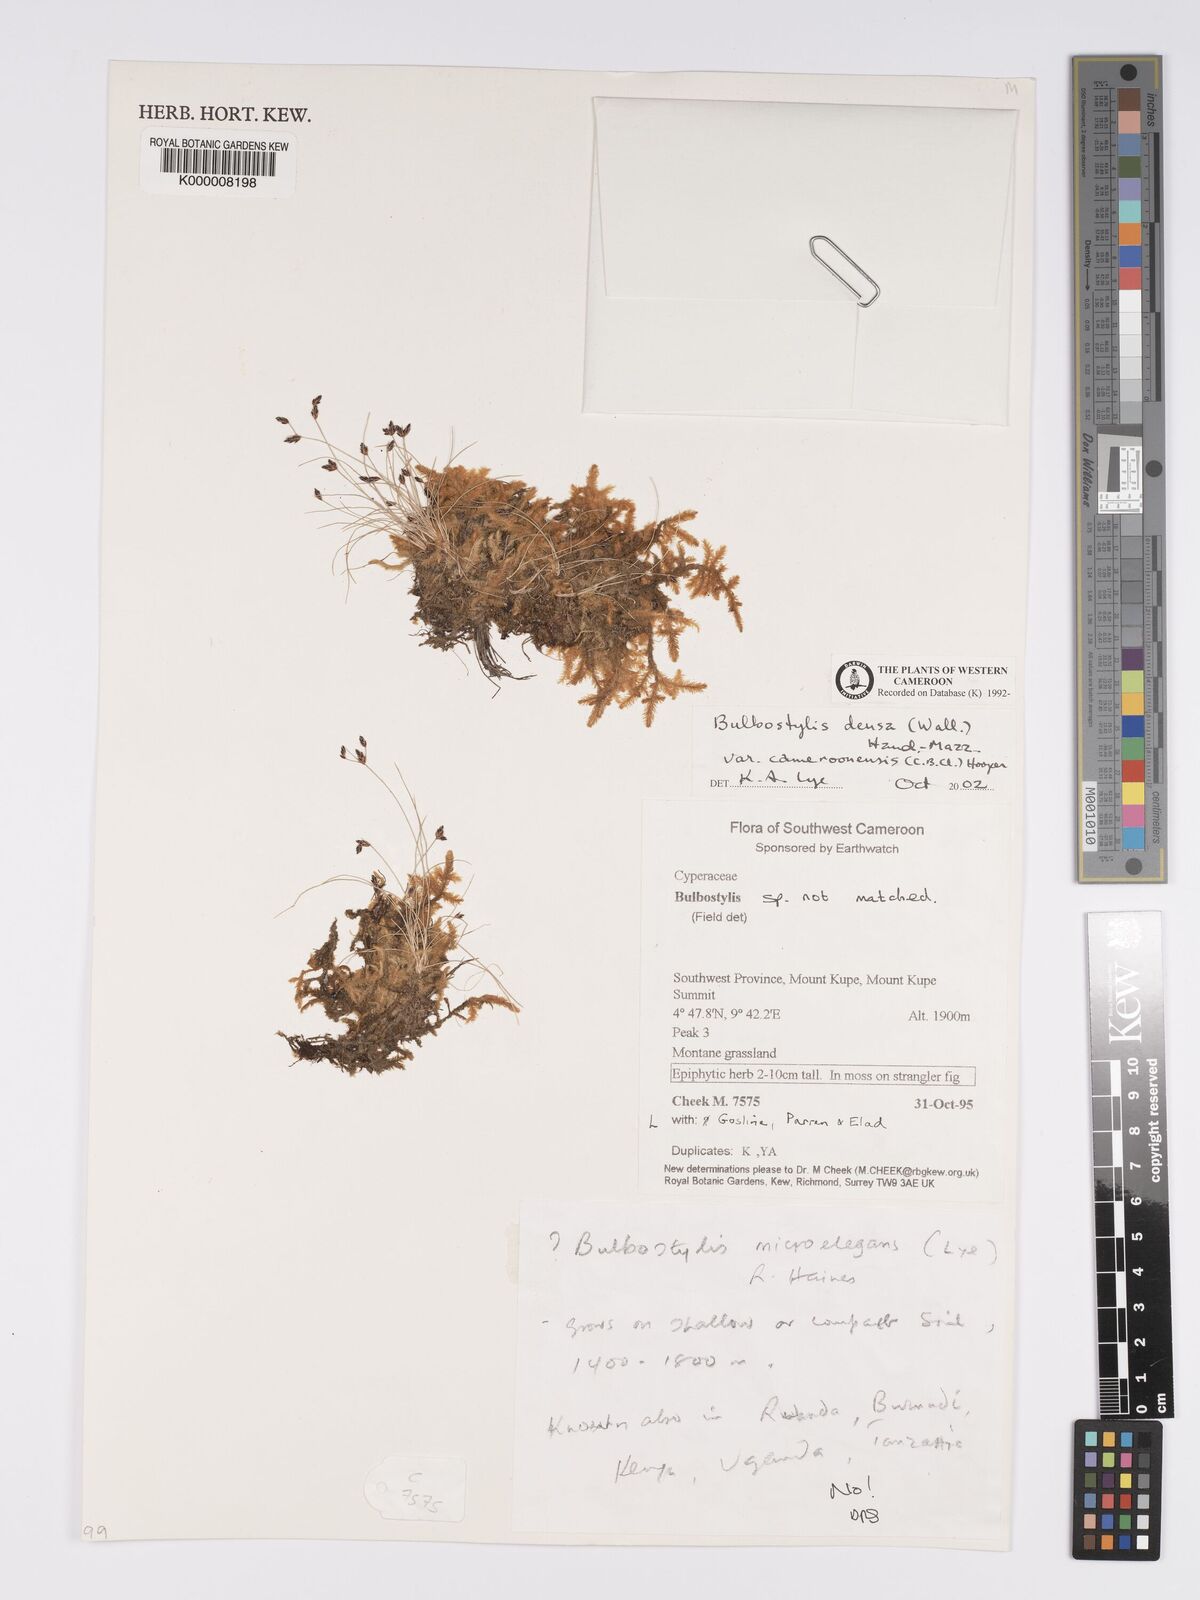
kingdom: Plantae
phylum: Tracheophyta
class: Liliopsida
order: Poales
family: Cyperaceae
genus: Bulbostylis
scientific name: Bulbostylis densa
